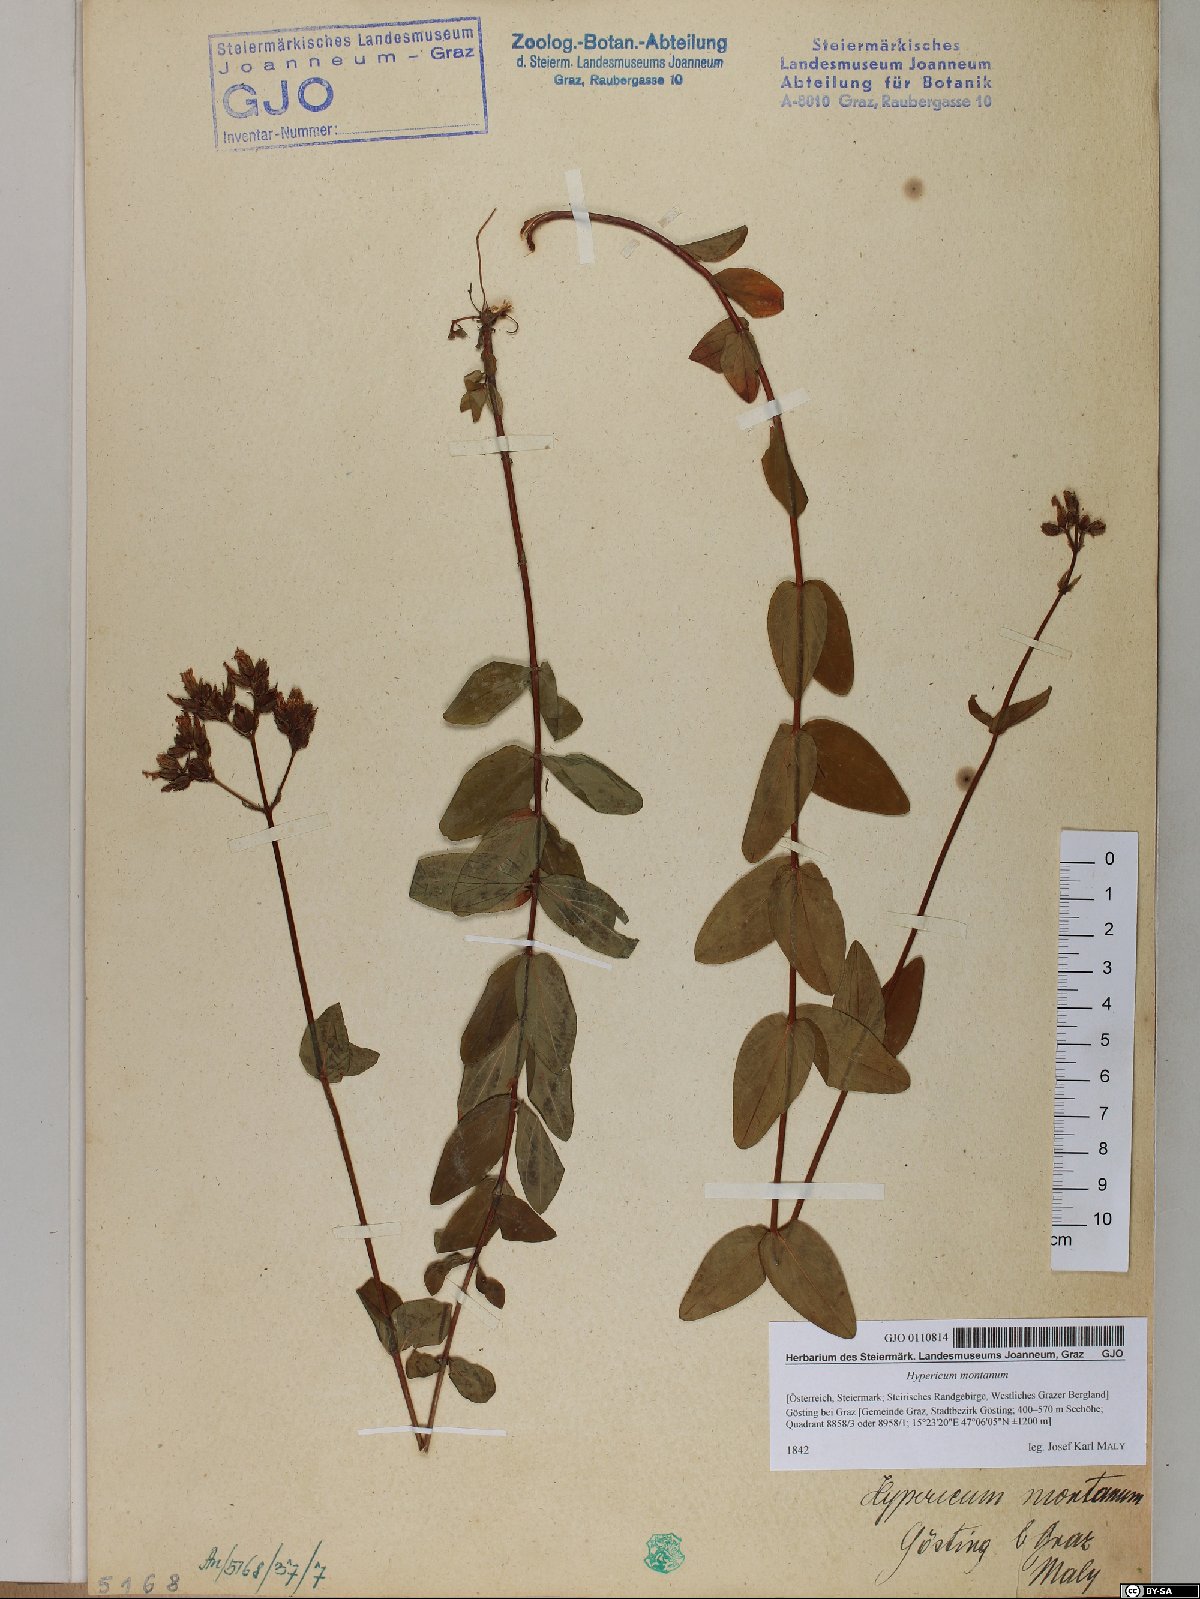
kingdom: Plantae
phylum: Tracheophyta
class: Magnoliopsida
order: Malpighiales
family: Hypericaceae
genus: Hypericum
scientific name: Hypericum montanum
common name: Pale st. john's-wort
